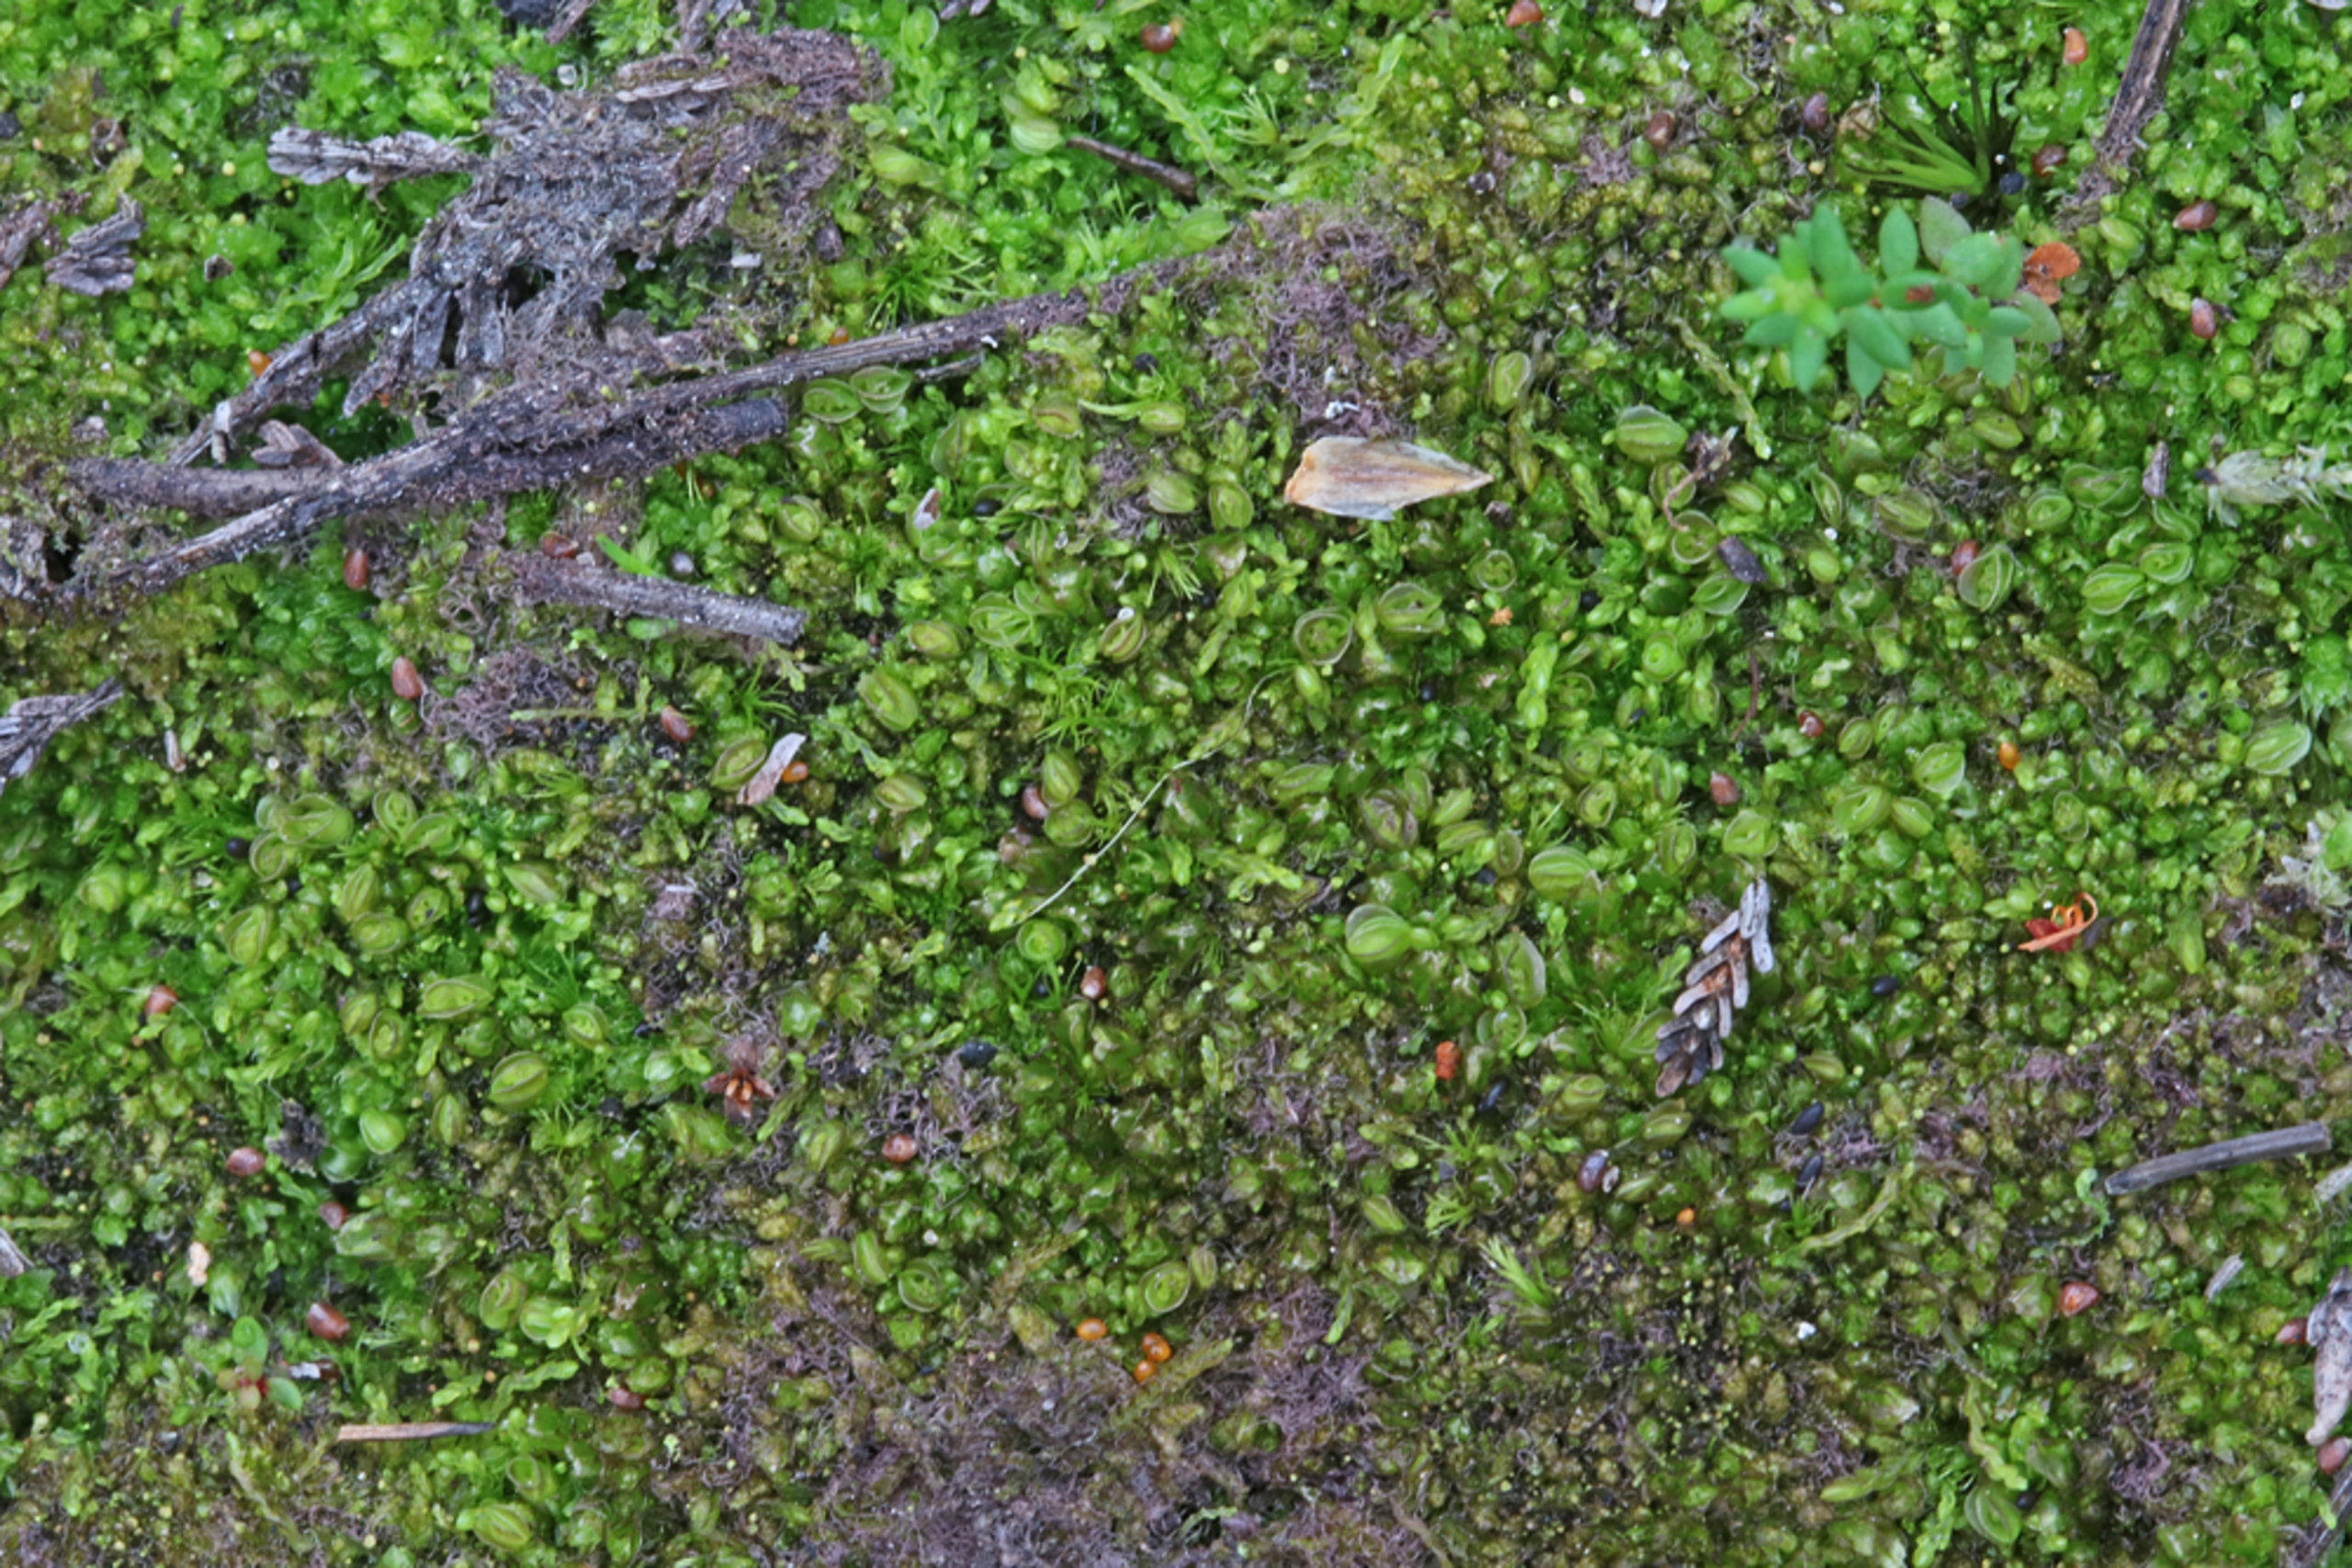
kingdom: Plantae
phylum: Marchantiophyta
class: Jungermanniopsida
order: Jungermanniales
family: Solenostomataceae
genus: Solenostoma
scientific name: Solenostoma gracillimum
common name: Vinget rørmund
